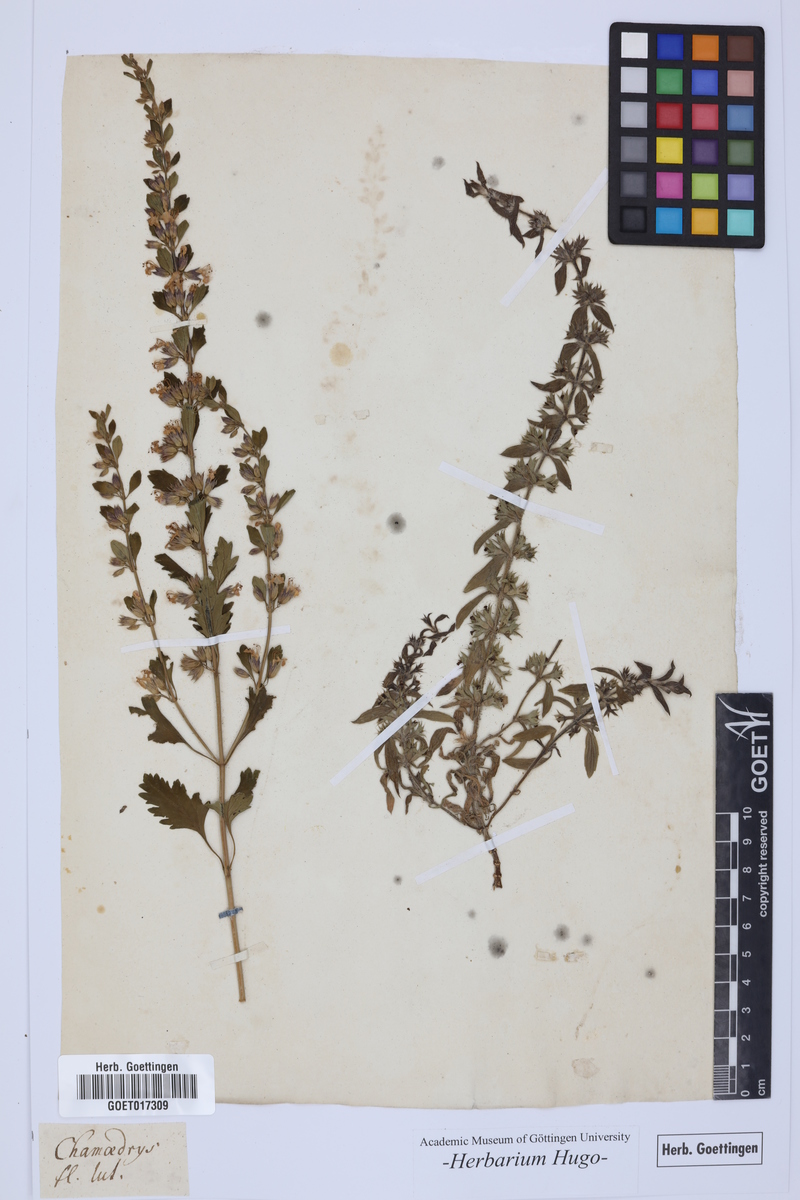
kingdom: Plantae
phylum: Tracheophyta
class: Magnoliopsida
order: Lamiales
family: Lamiaceae
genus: Chamaedrys
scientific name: Chamaedrys
